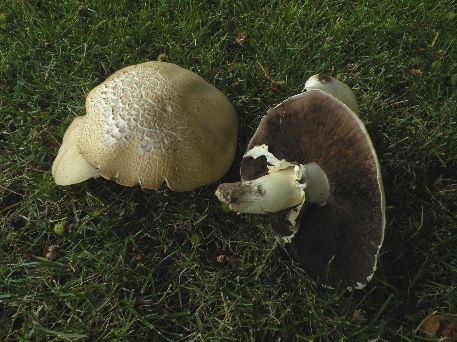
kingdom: Fungi
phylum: Basidiomycota
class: Agaricomycetes
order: Agaricales
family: Agaricaceae
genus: Agaricus
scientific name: Agaricus arvensis
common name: ager-champignon
